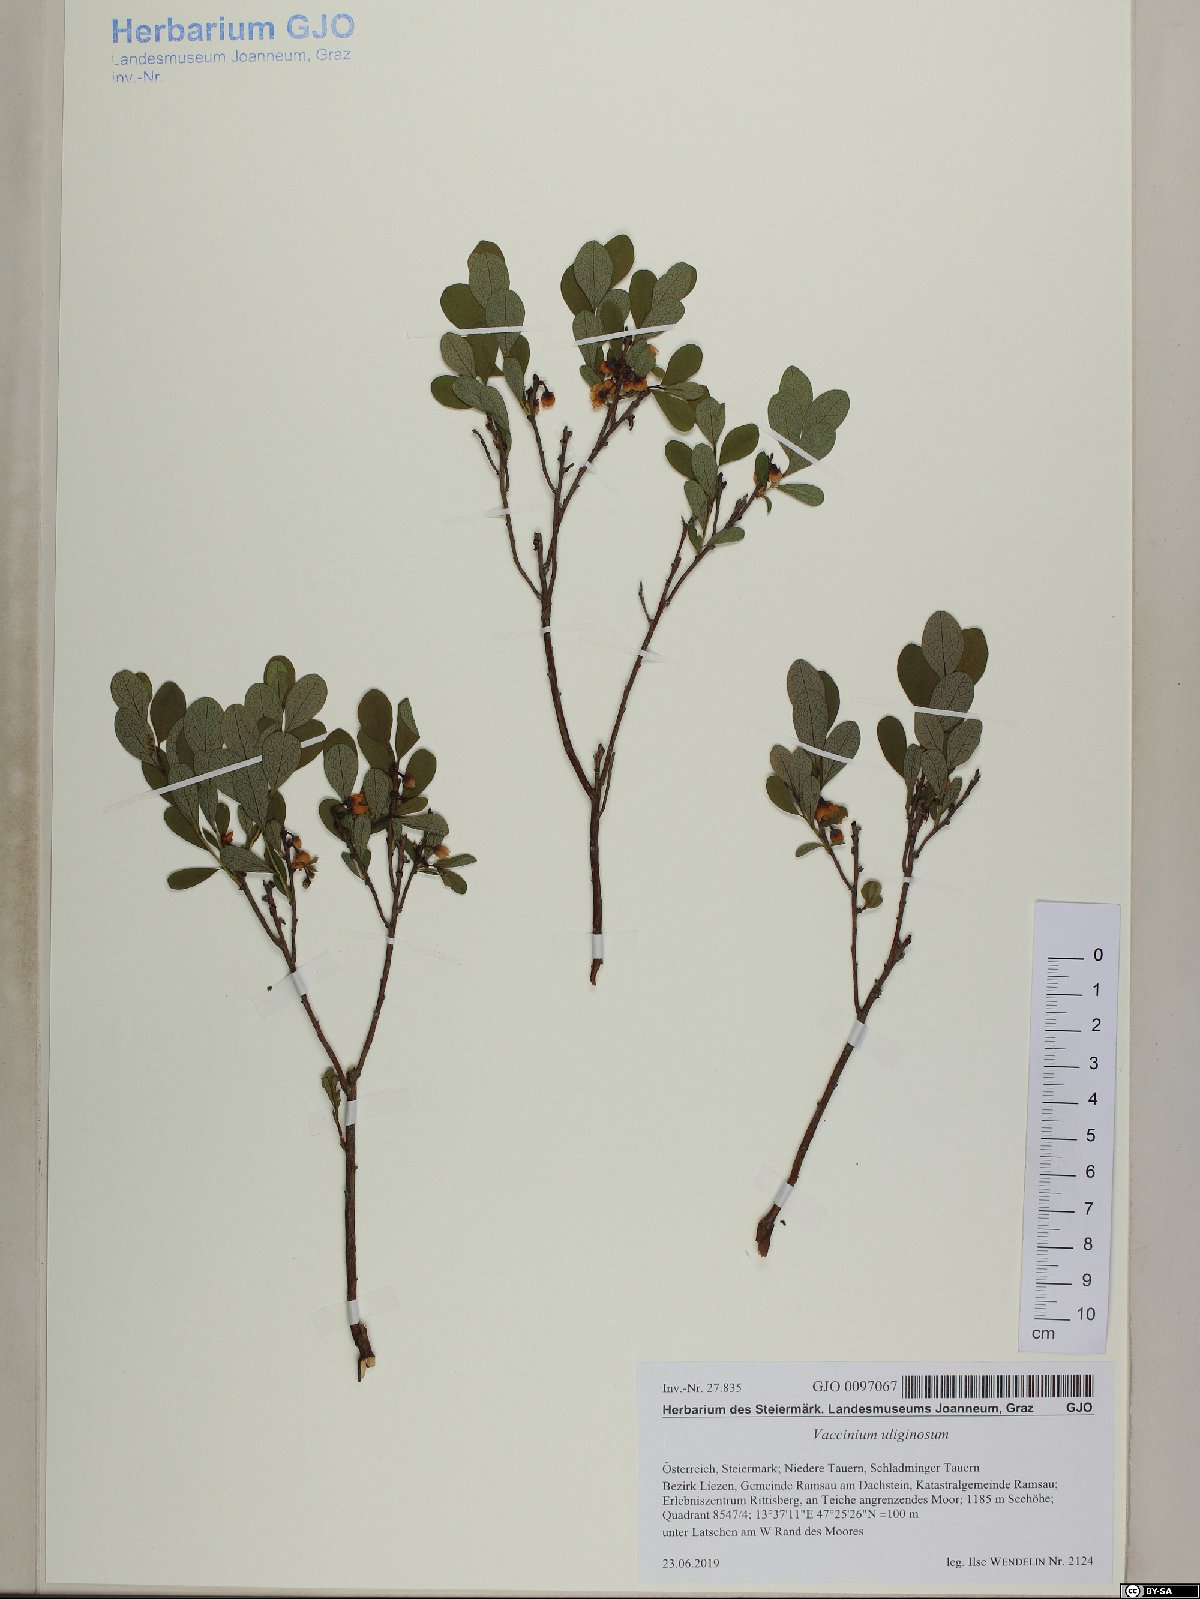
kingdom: Plantae
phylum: Tracheophyta
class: Magnoliopsida
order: Ericales
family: Ericaceae
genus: Vaccinium
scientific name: Vaccinium uliginosum
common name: Bog bilberry
